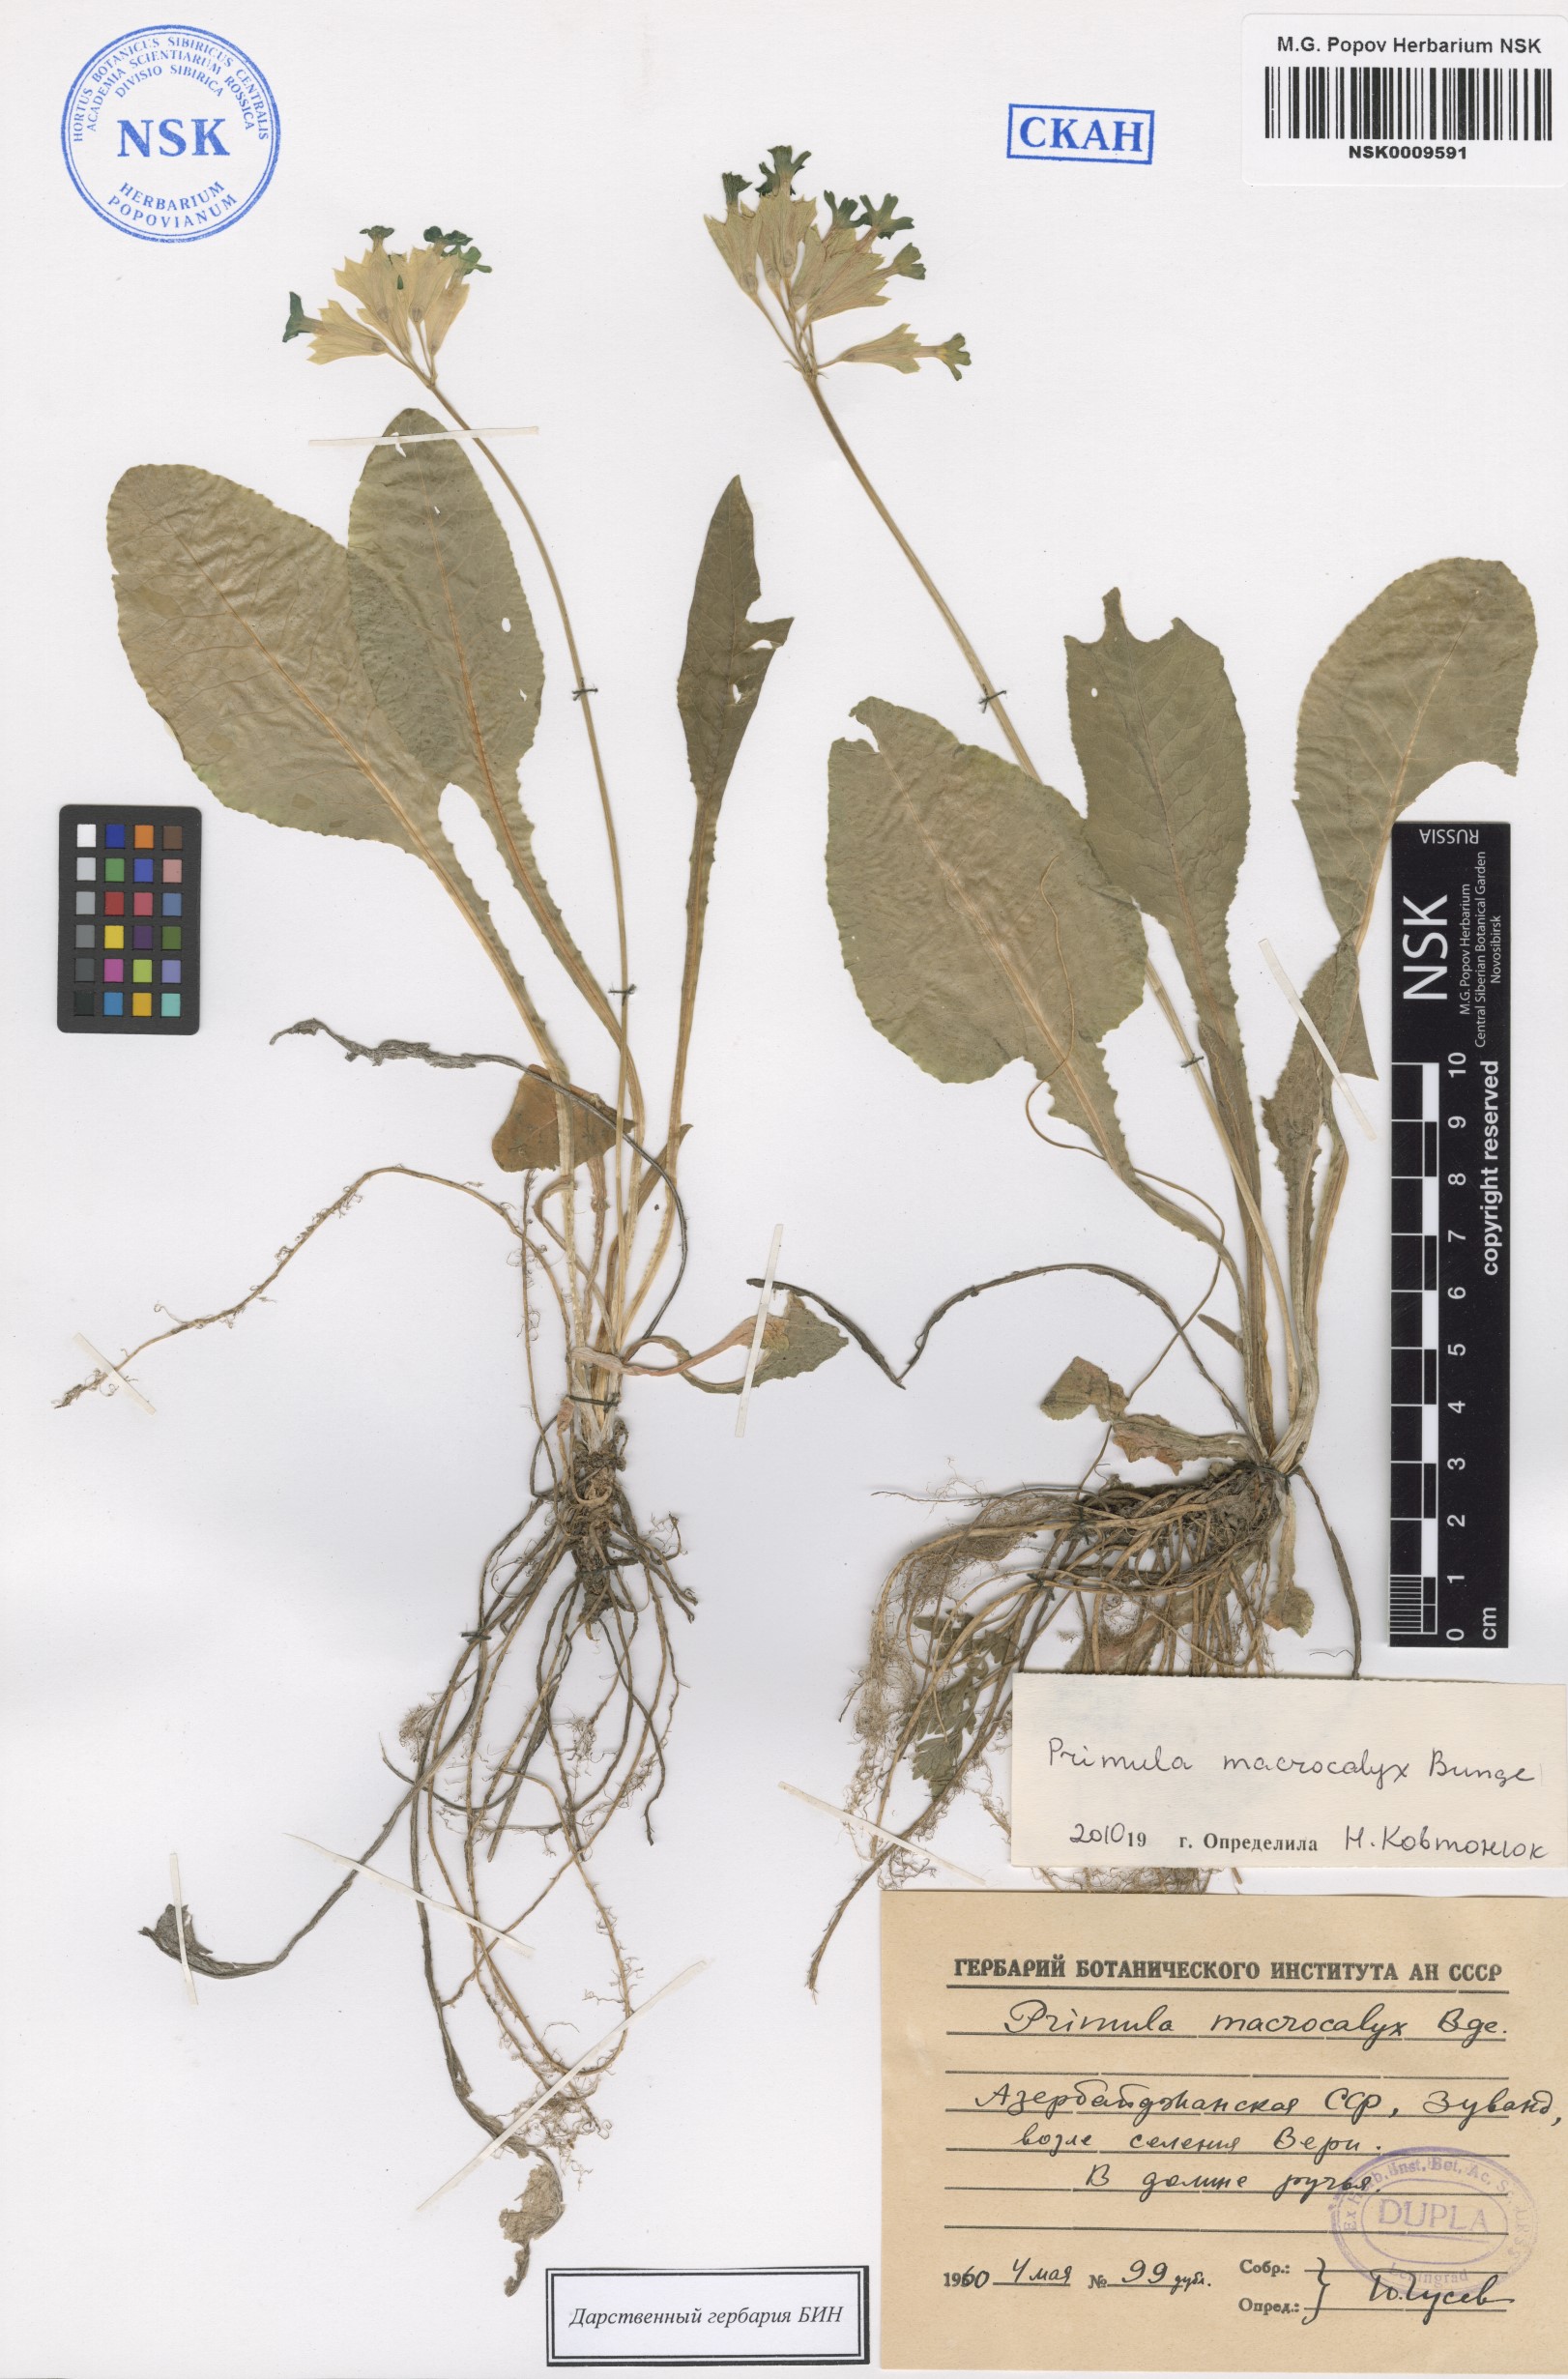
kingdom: Plantae
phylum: Tracheophyta
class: Magnoliopsida
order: Ericales
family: Primulaceae
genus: Primula
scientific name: Primula veris
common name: Cowslip
